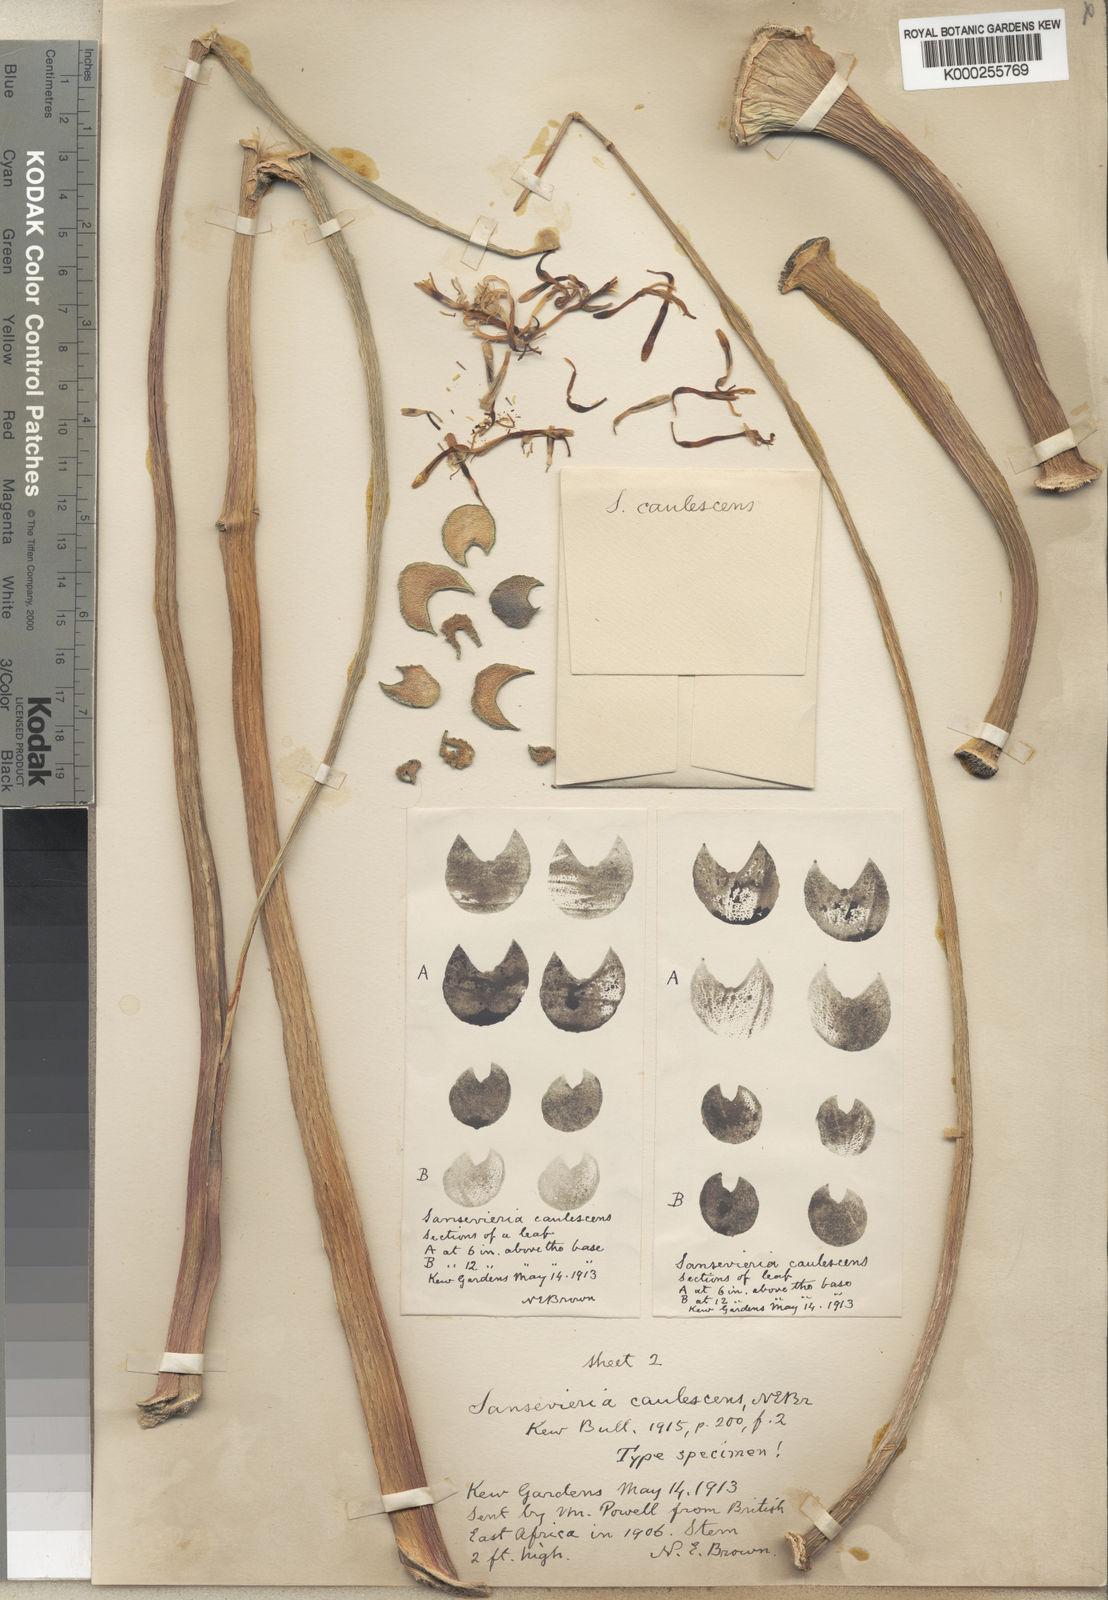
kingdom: Plantae
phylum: Tracheophyta
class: Liliopsida
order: Asparagales
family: Asparagaceae
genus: Dracaena
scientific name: Dracaena caulescens
